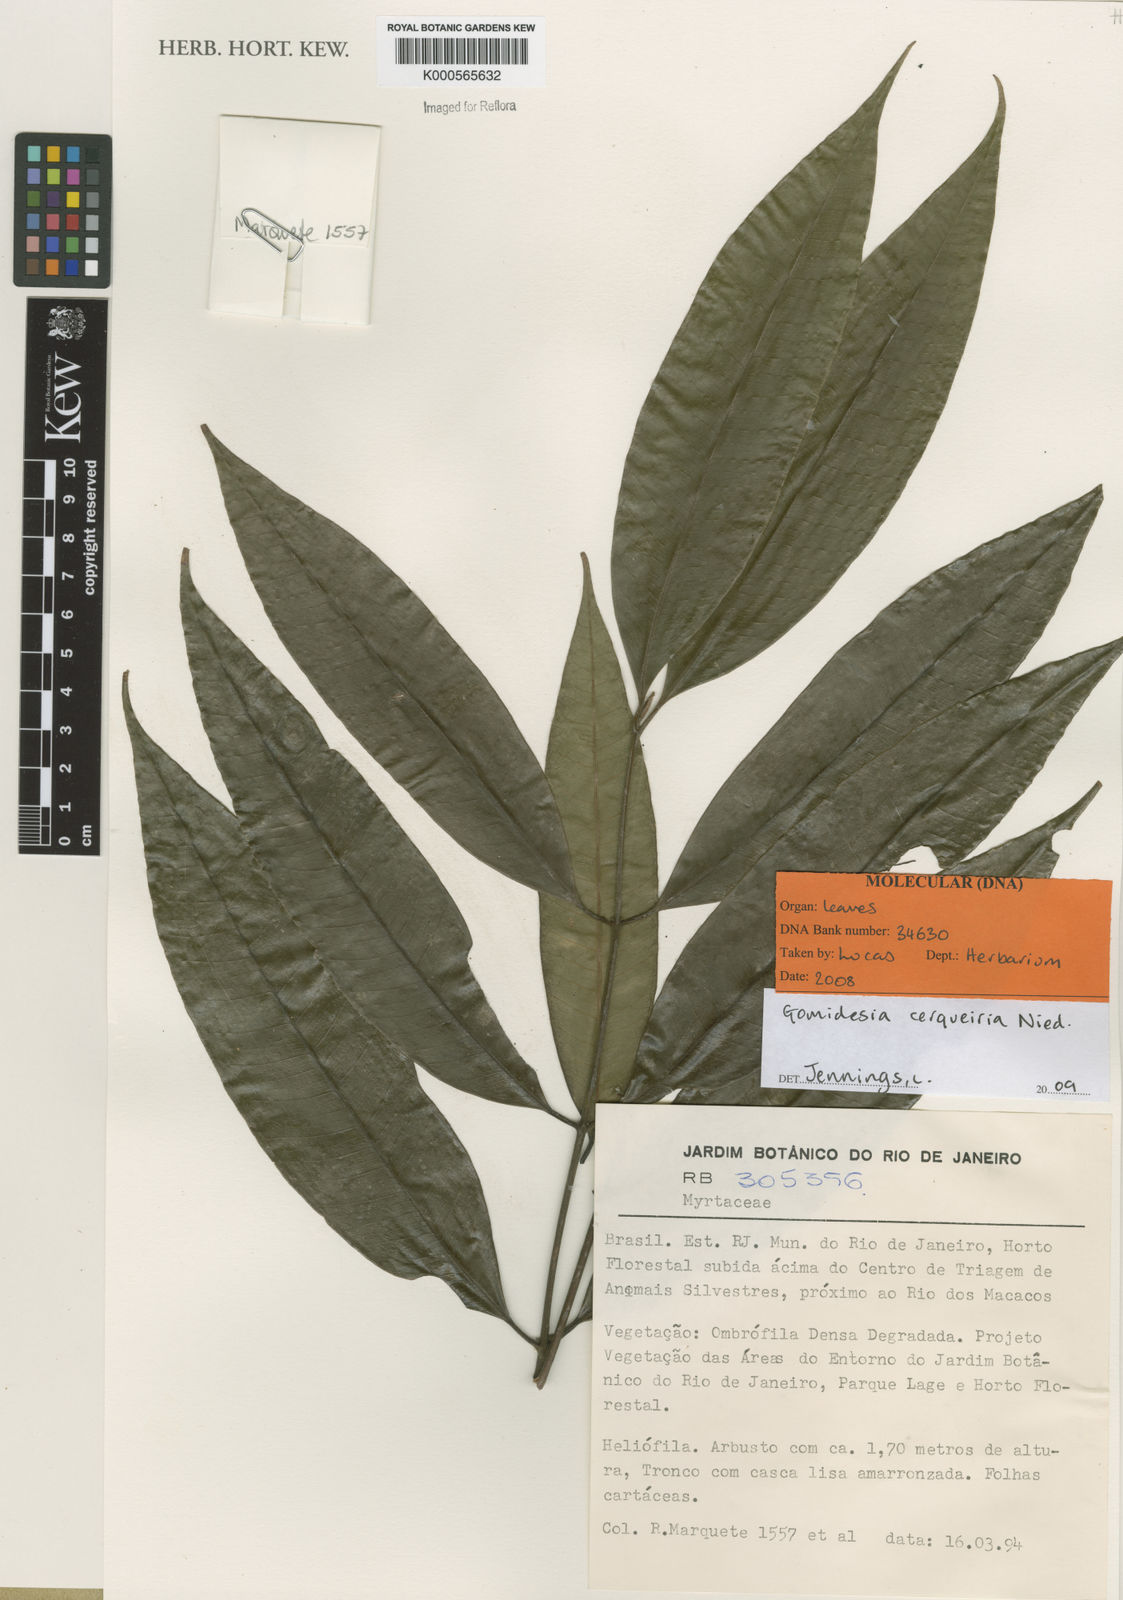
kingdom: Plantae
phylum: Tracheophyta
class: Magnoliopsida
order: Myrtales
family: Myrtaceae
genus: Myrcia
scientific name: Myrcia cerqueiria
